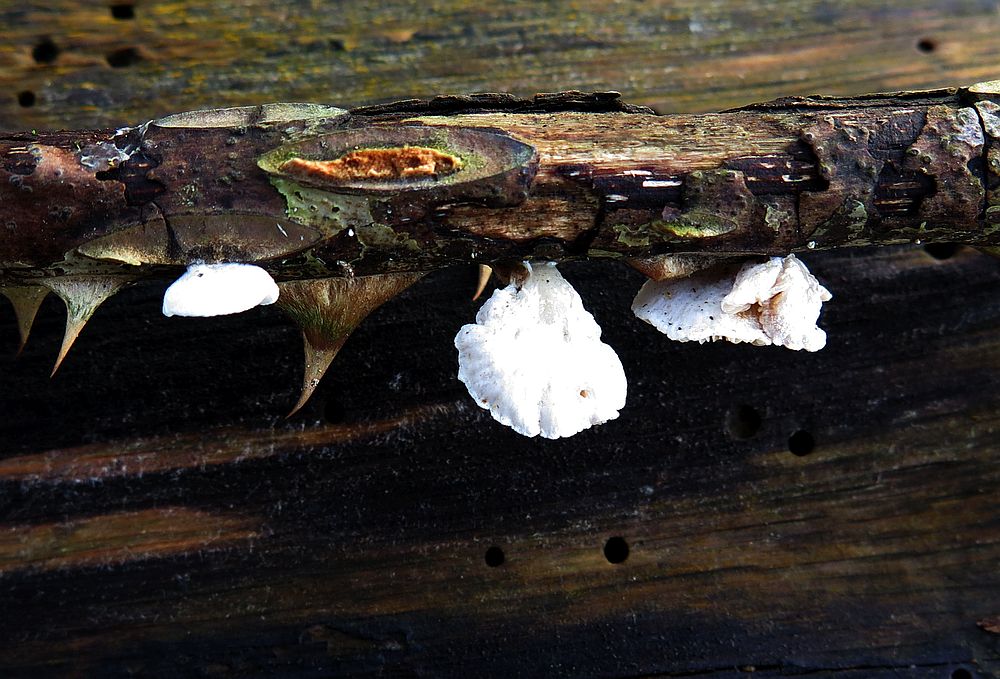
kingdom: Fungi
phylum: Basidiomycota
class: Agaricomycetes
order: Agaricales
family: Crepidotaceae
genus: Crepidotus
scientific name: Crepidotus cesatii
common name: almindelig muslingesvamp
